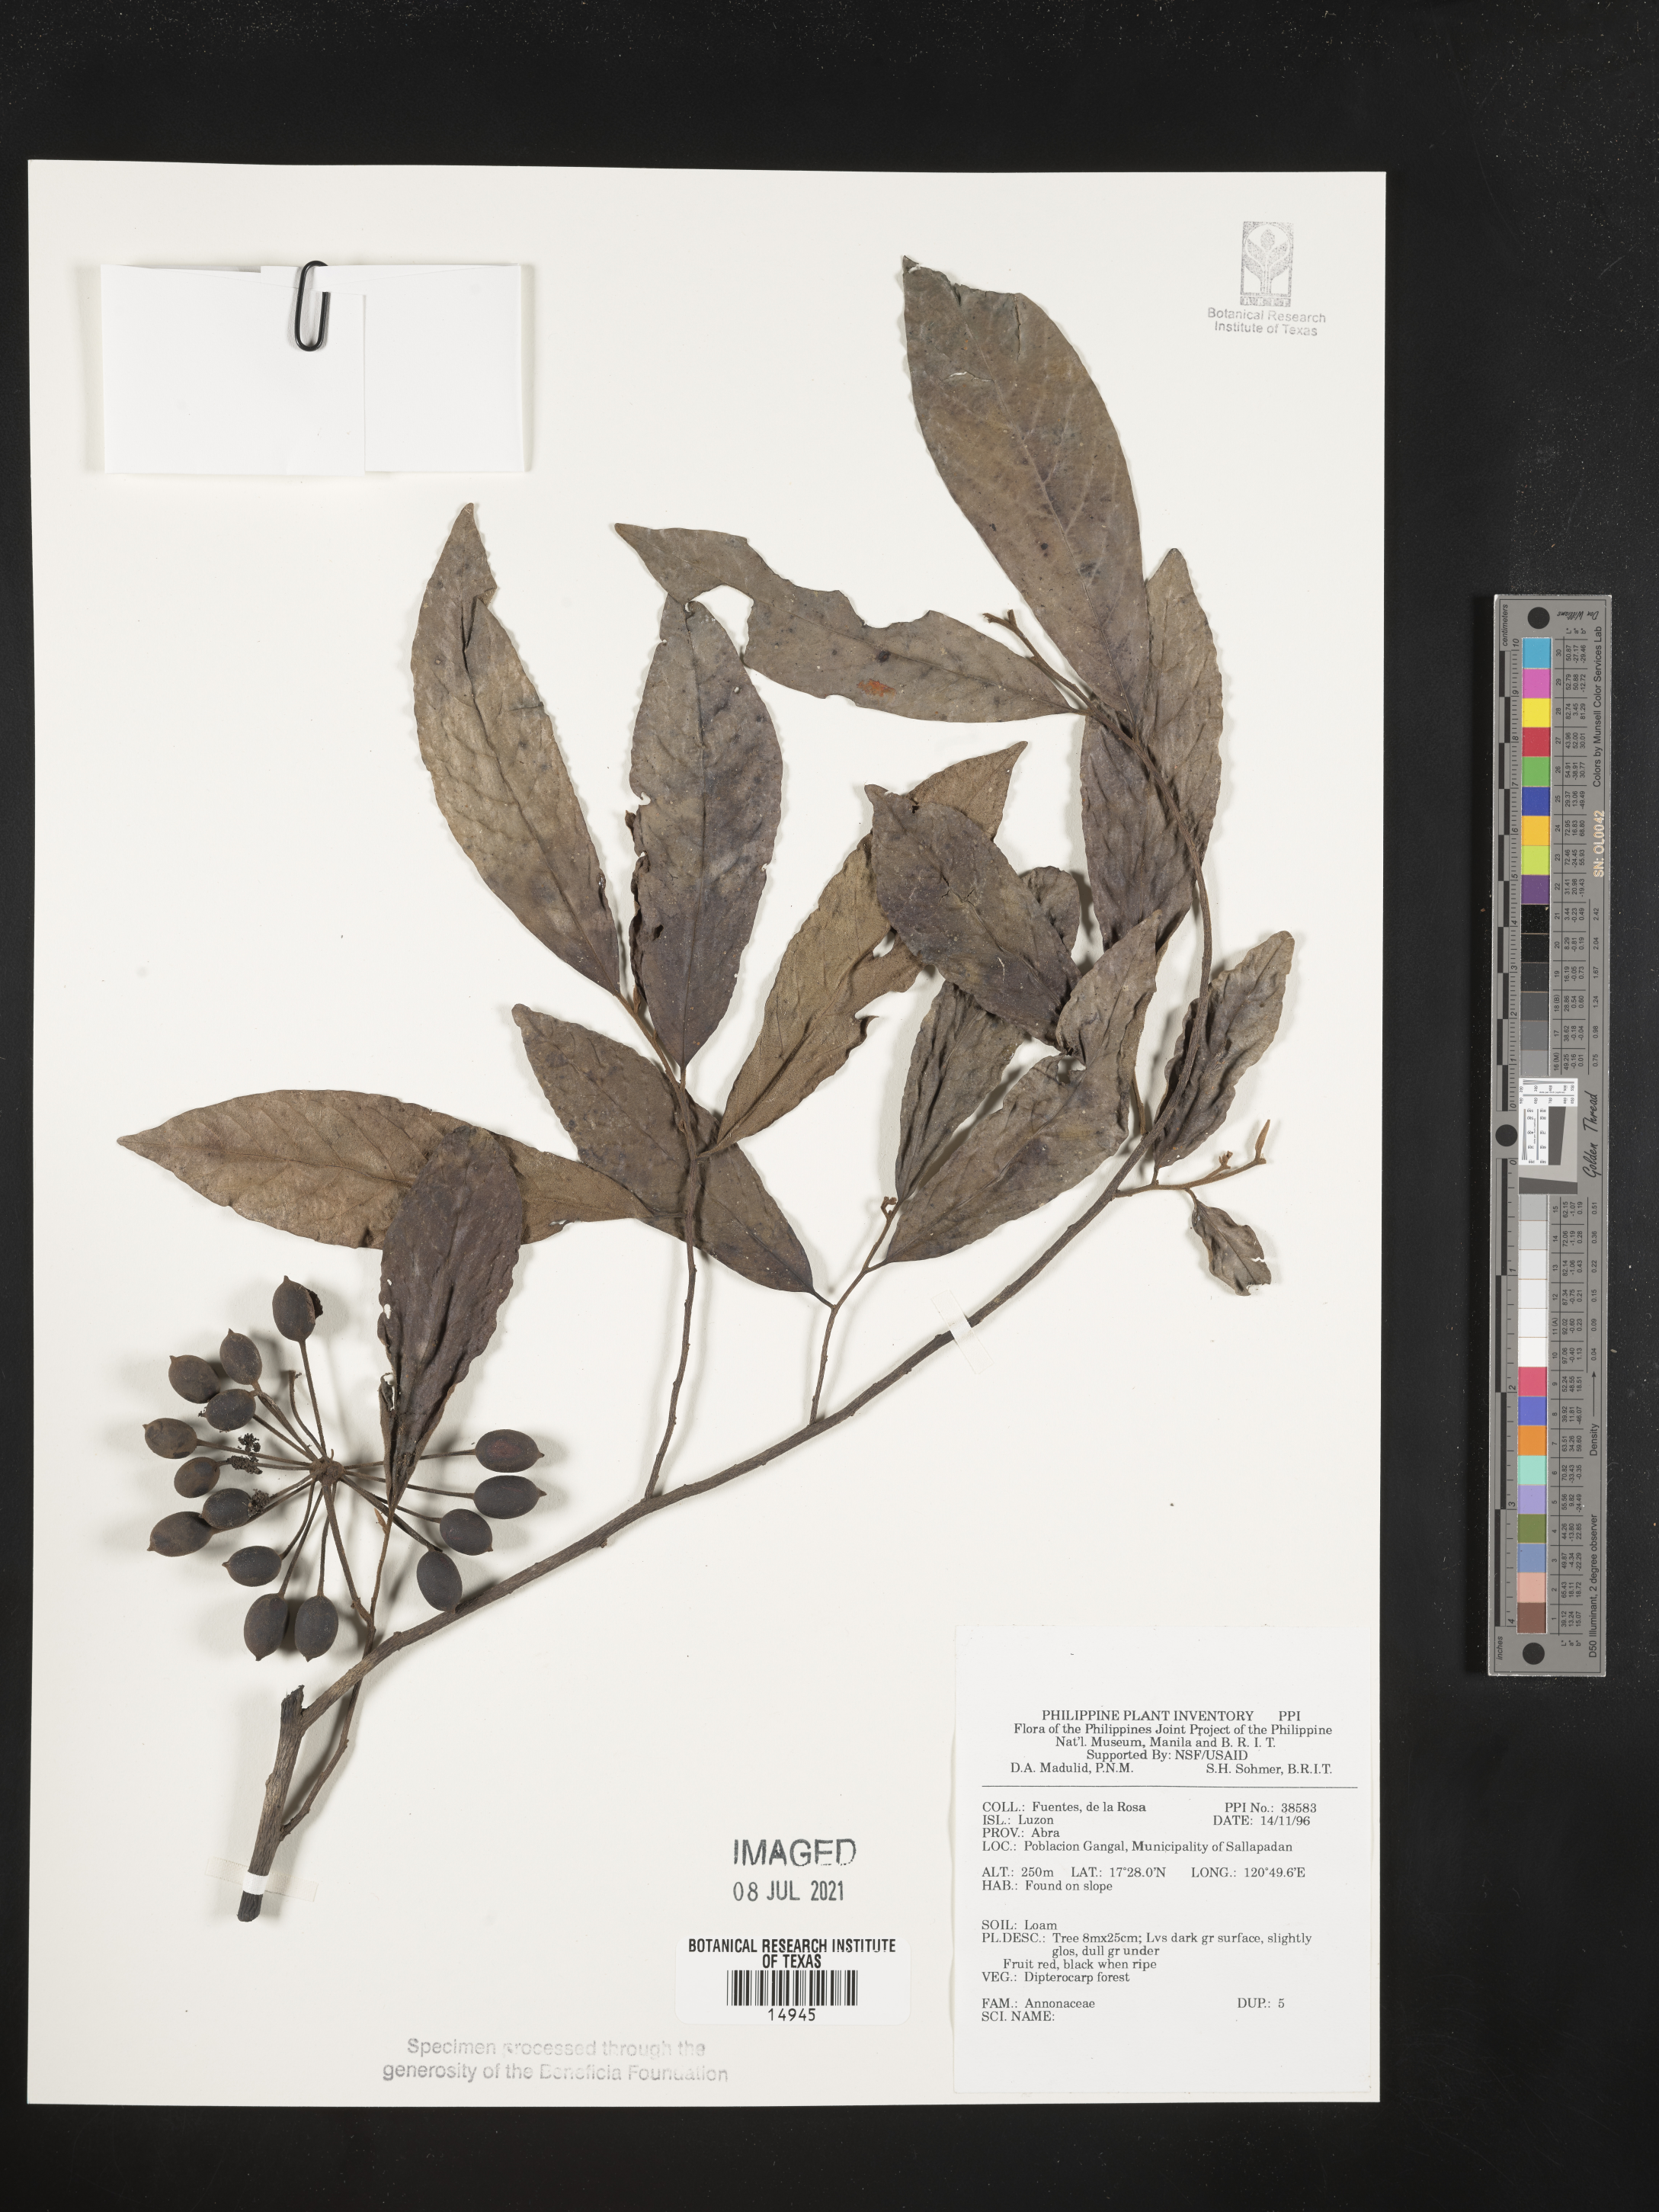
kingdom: Plantae
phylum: Tracheophyta
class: Magnoliopsida
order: Magnoliales
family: Annonaceae
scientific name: Annonaceae
